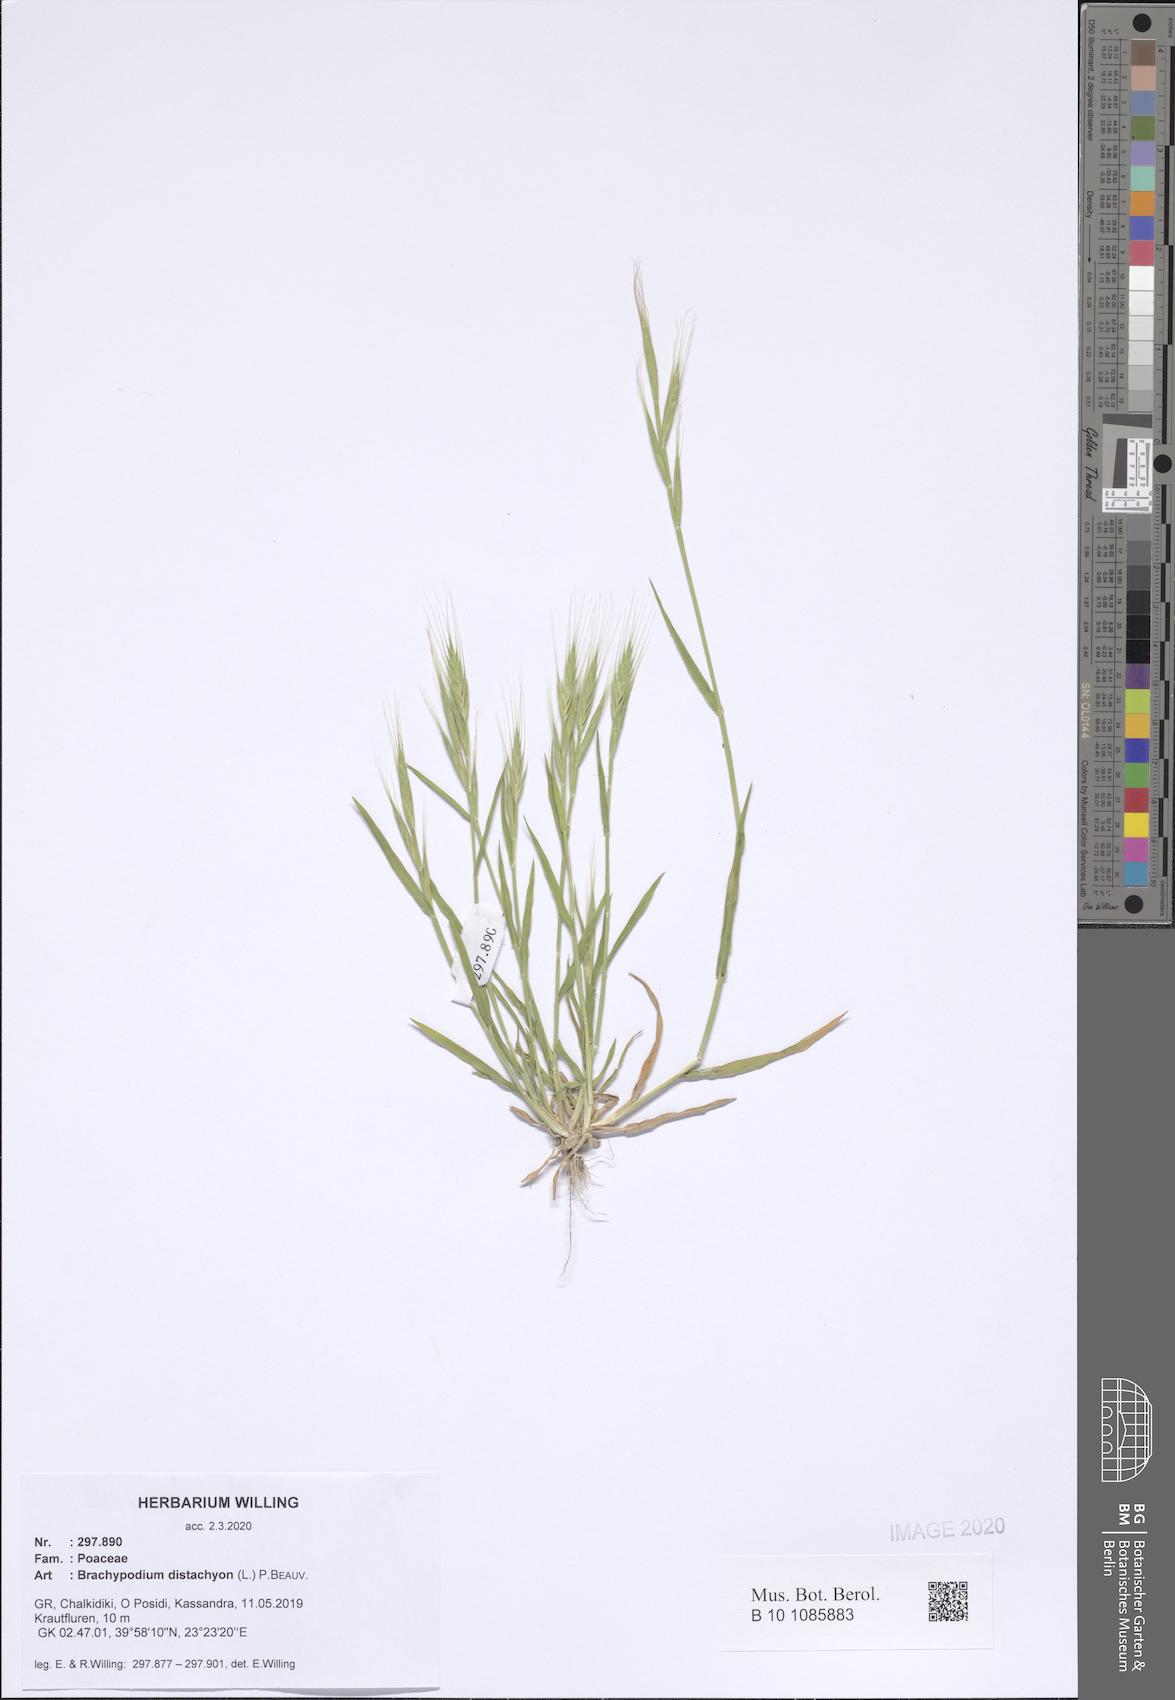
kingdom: Plantae
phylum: Tracheophyta
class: Liliopsida
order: Poales
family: Poaceae
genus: Brachypodium
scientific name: Brachypodium distachyon
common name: Stiff brome
